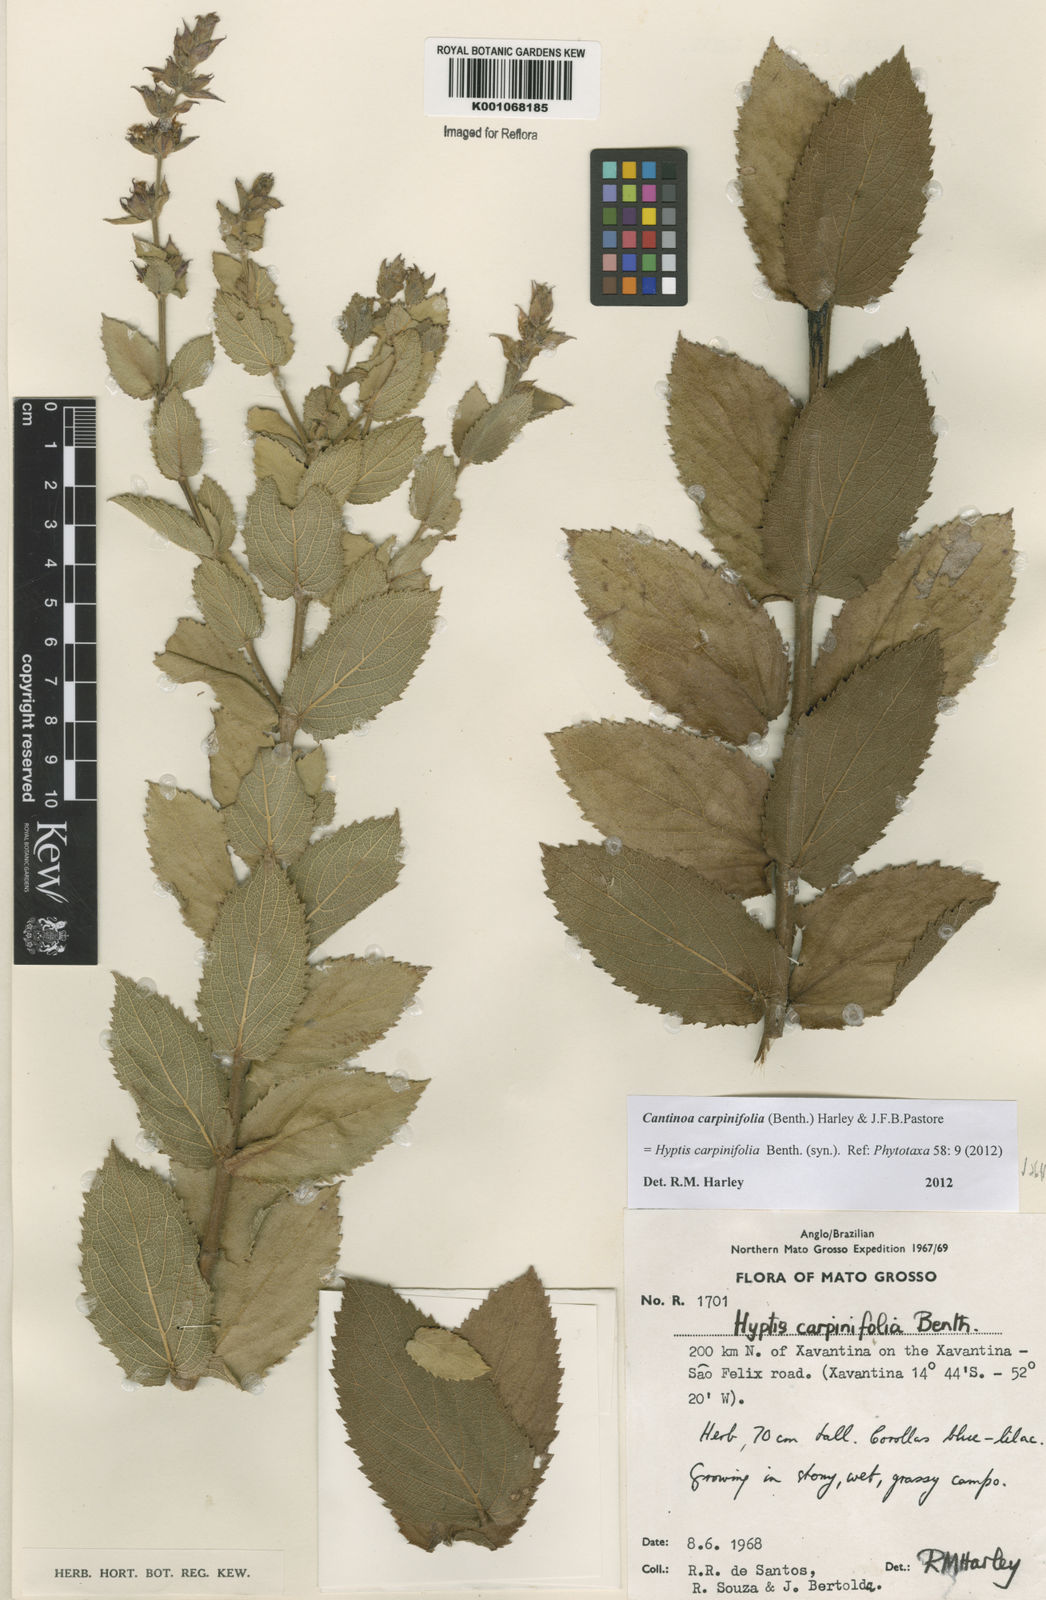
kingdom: Plantae
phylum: Tracheophyta
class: Magnoliopsida
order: Lamiales
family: Lamiaceae
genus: Cantinoa
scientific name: Cantinoa carpinifolia
